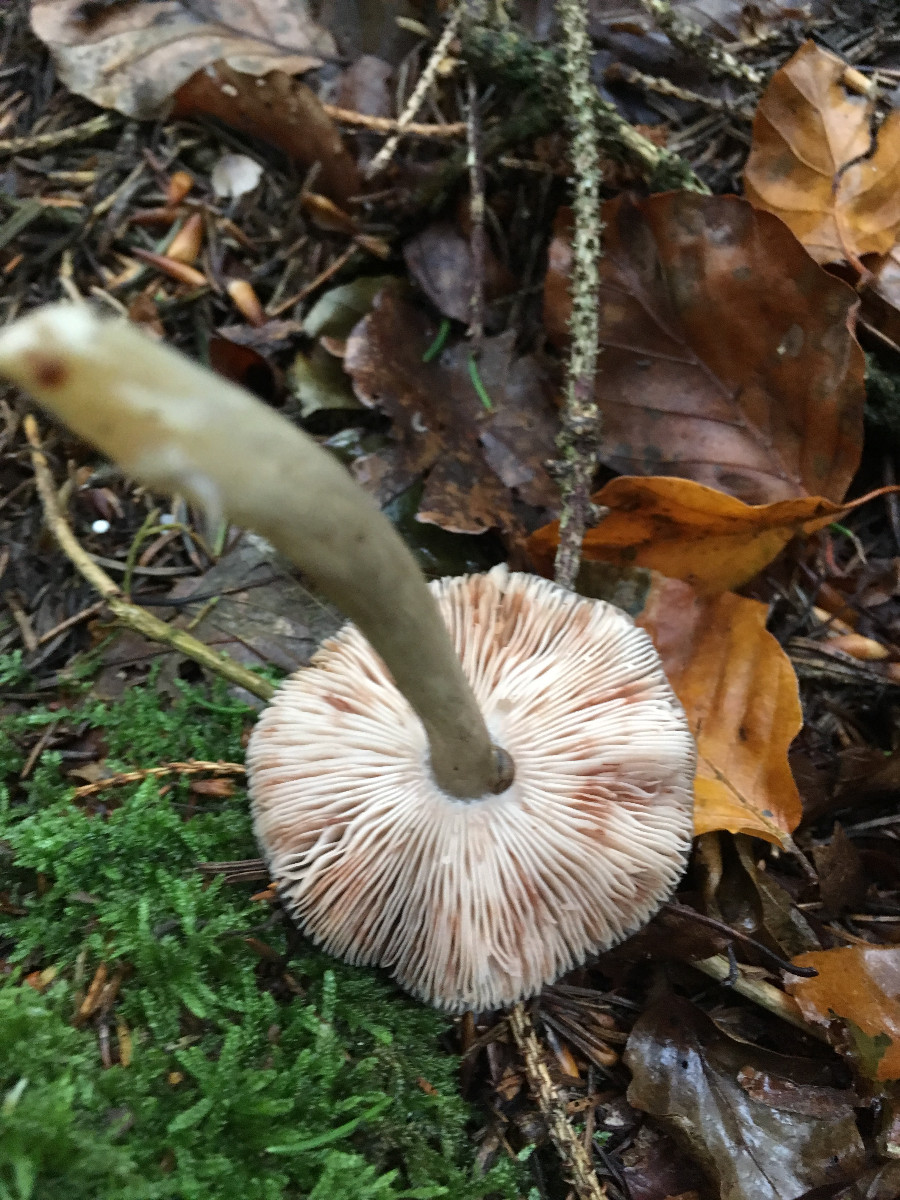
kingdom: Fungi
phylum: Basidiomycota
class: Agaricomycetes
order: Agaricales
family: Pluteaceae
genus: Pluteus
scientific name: Pluteus
